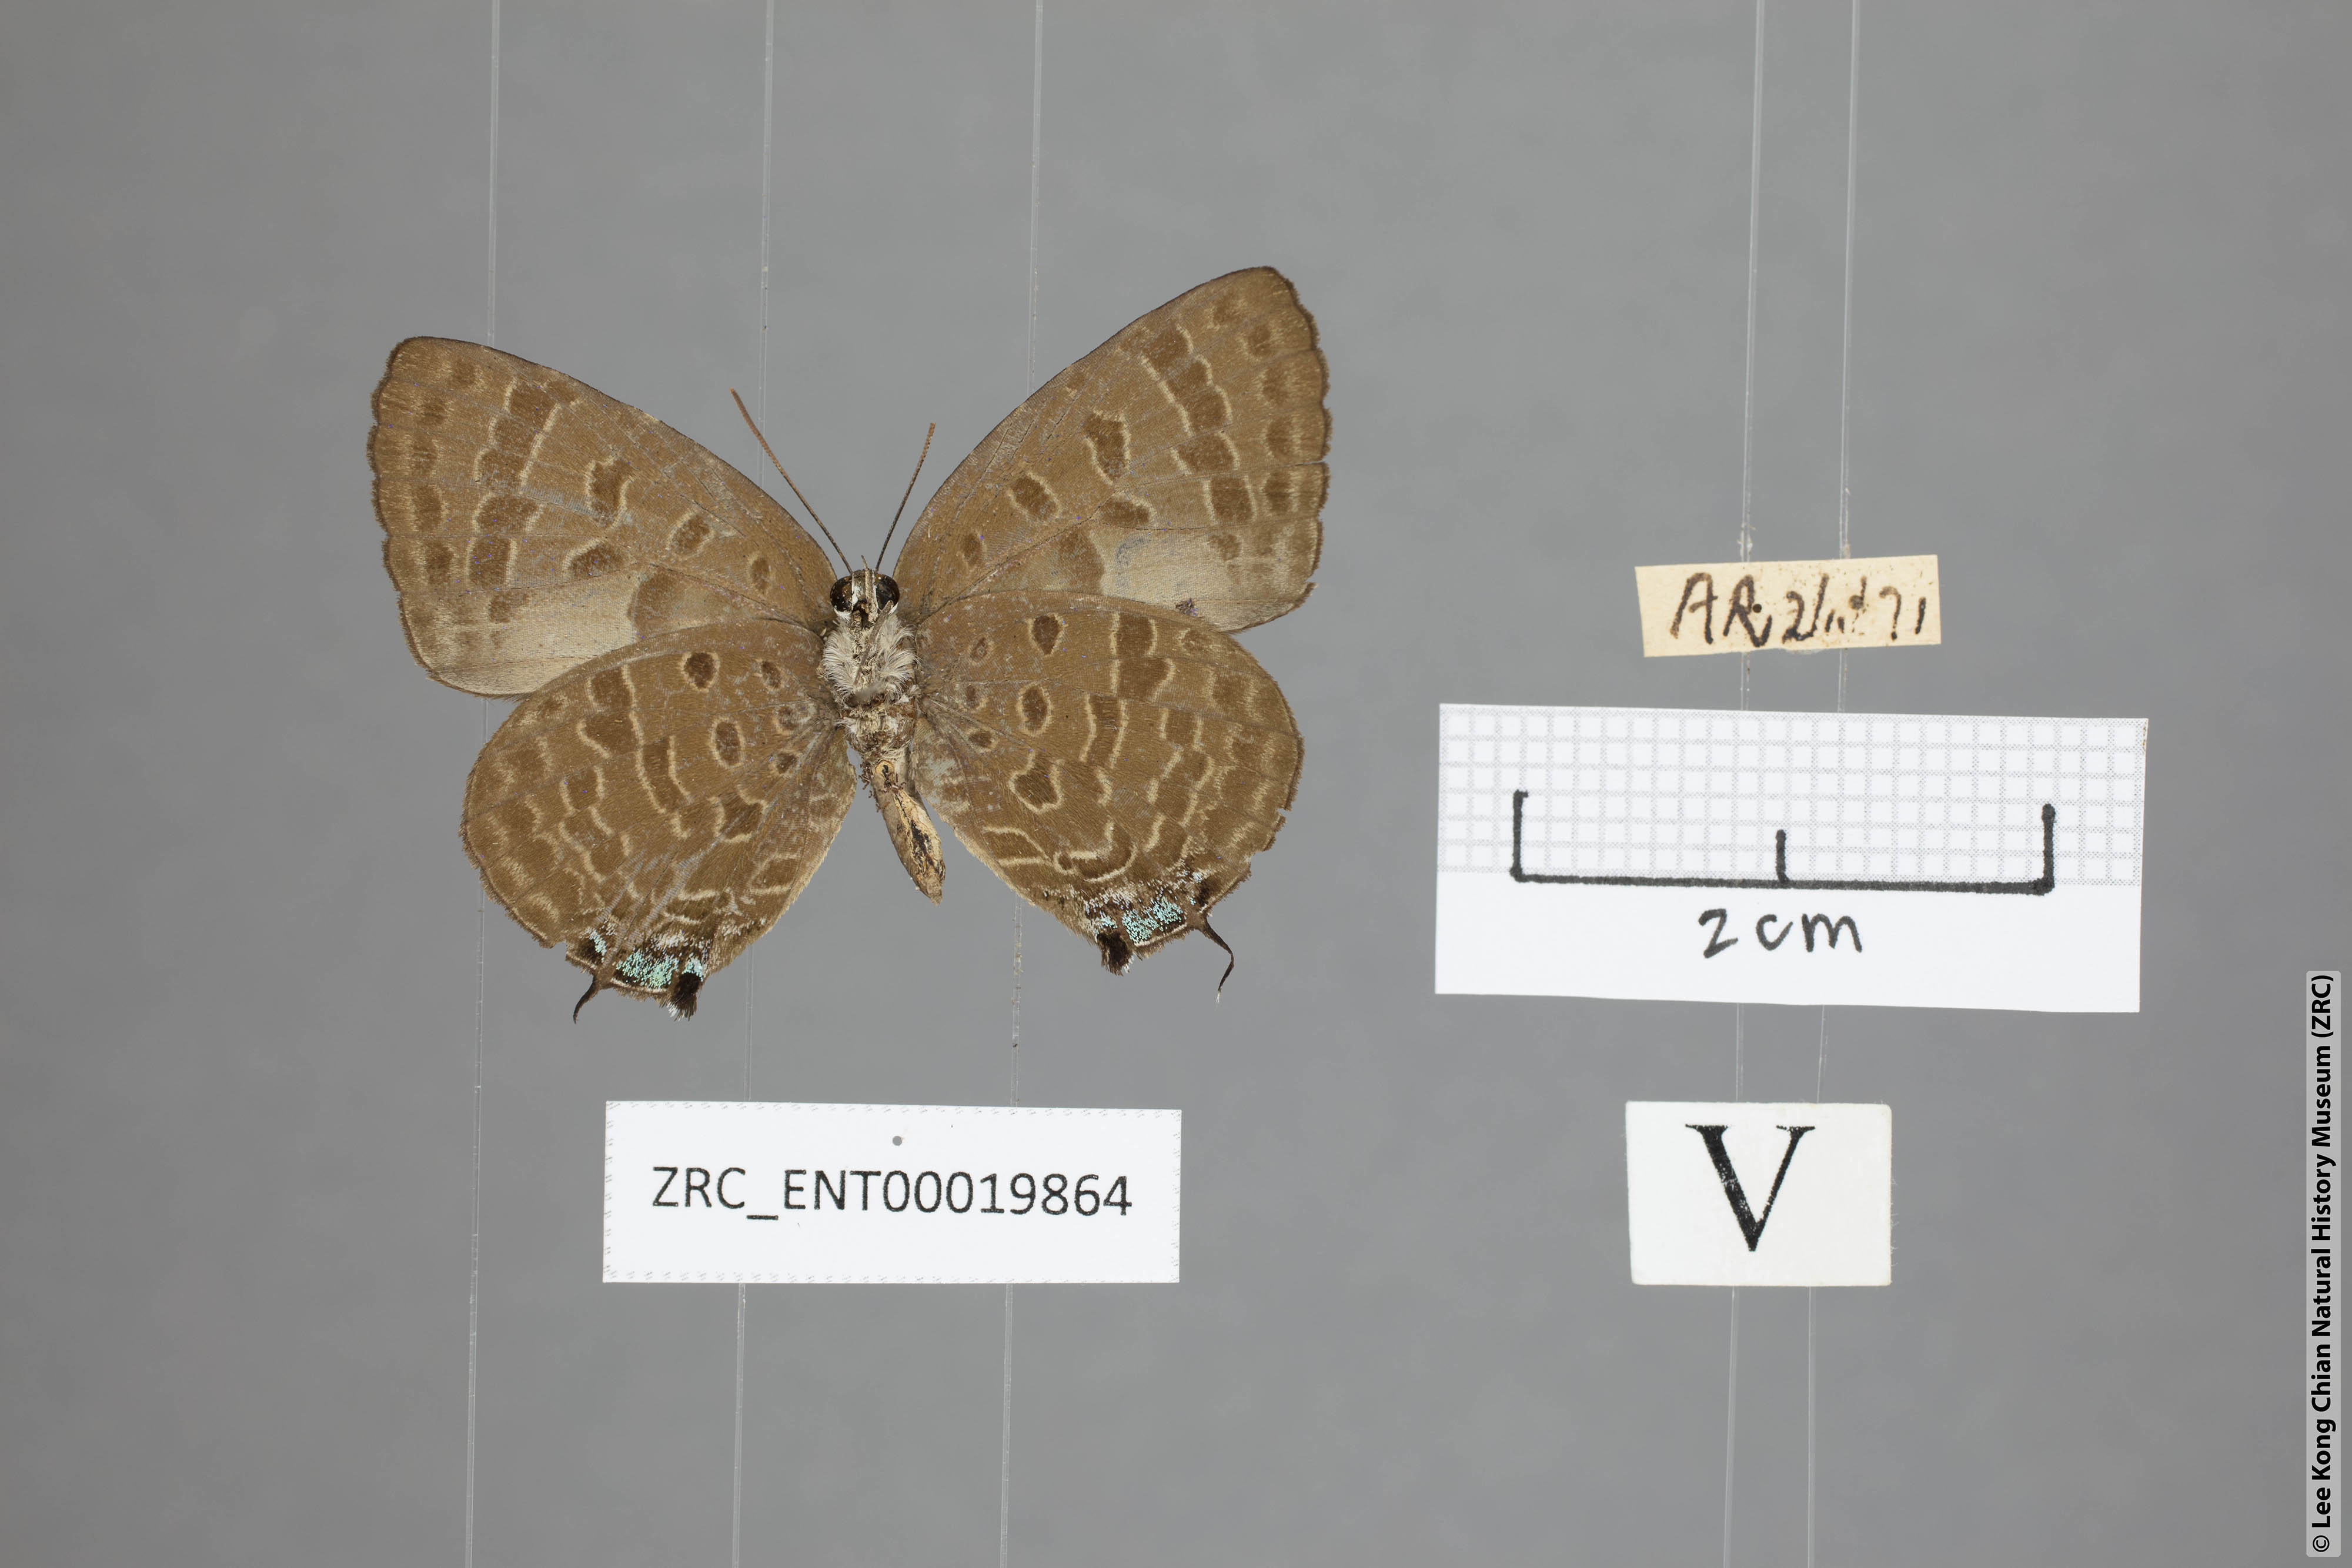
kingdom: Animalia
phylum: Arthropoda
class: Insecta
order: Lepidoptera
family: Lycaenidae
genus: Arhopala
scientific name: Arhopala sublustris
